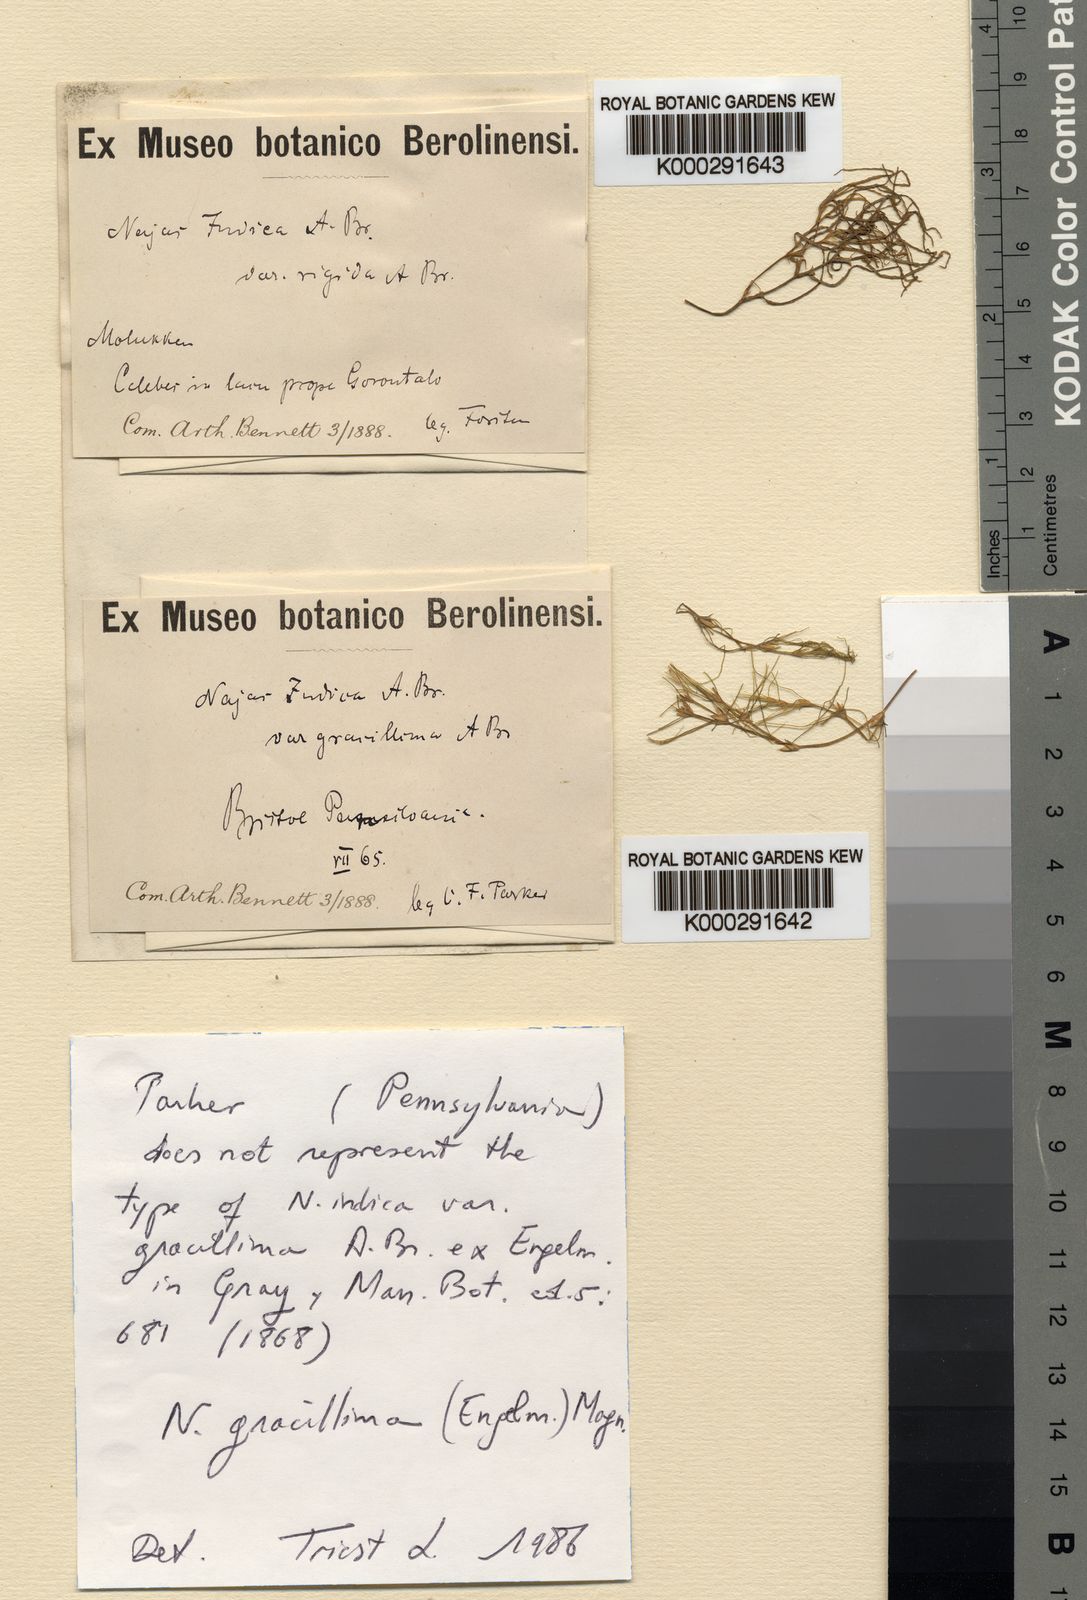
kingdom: Plantae
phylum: Tracheophyta
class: Liliopsida
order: Alismatales
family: Hydrocharitaceae
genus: Najas
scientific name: Najas indica
